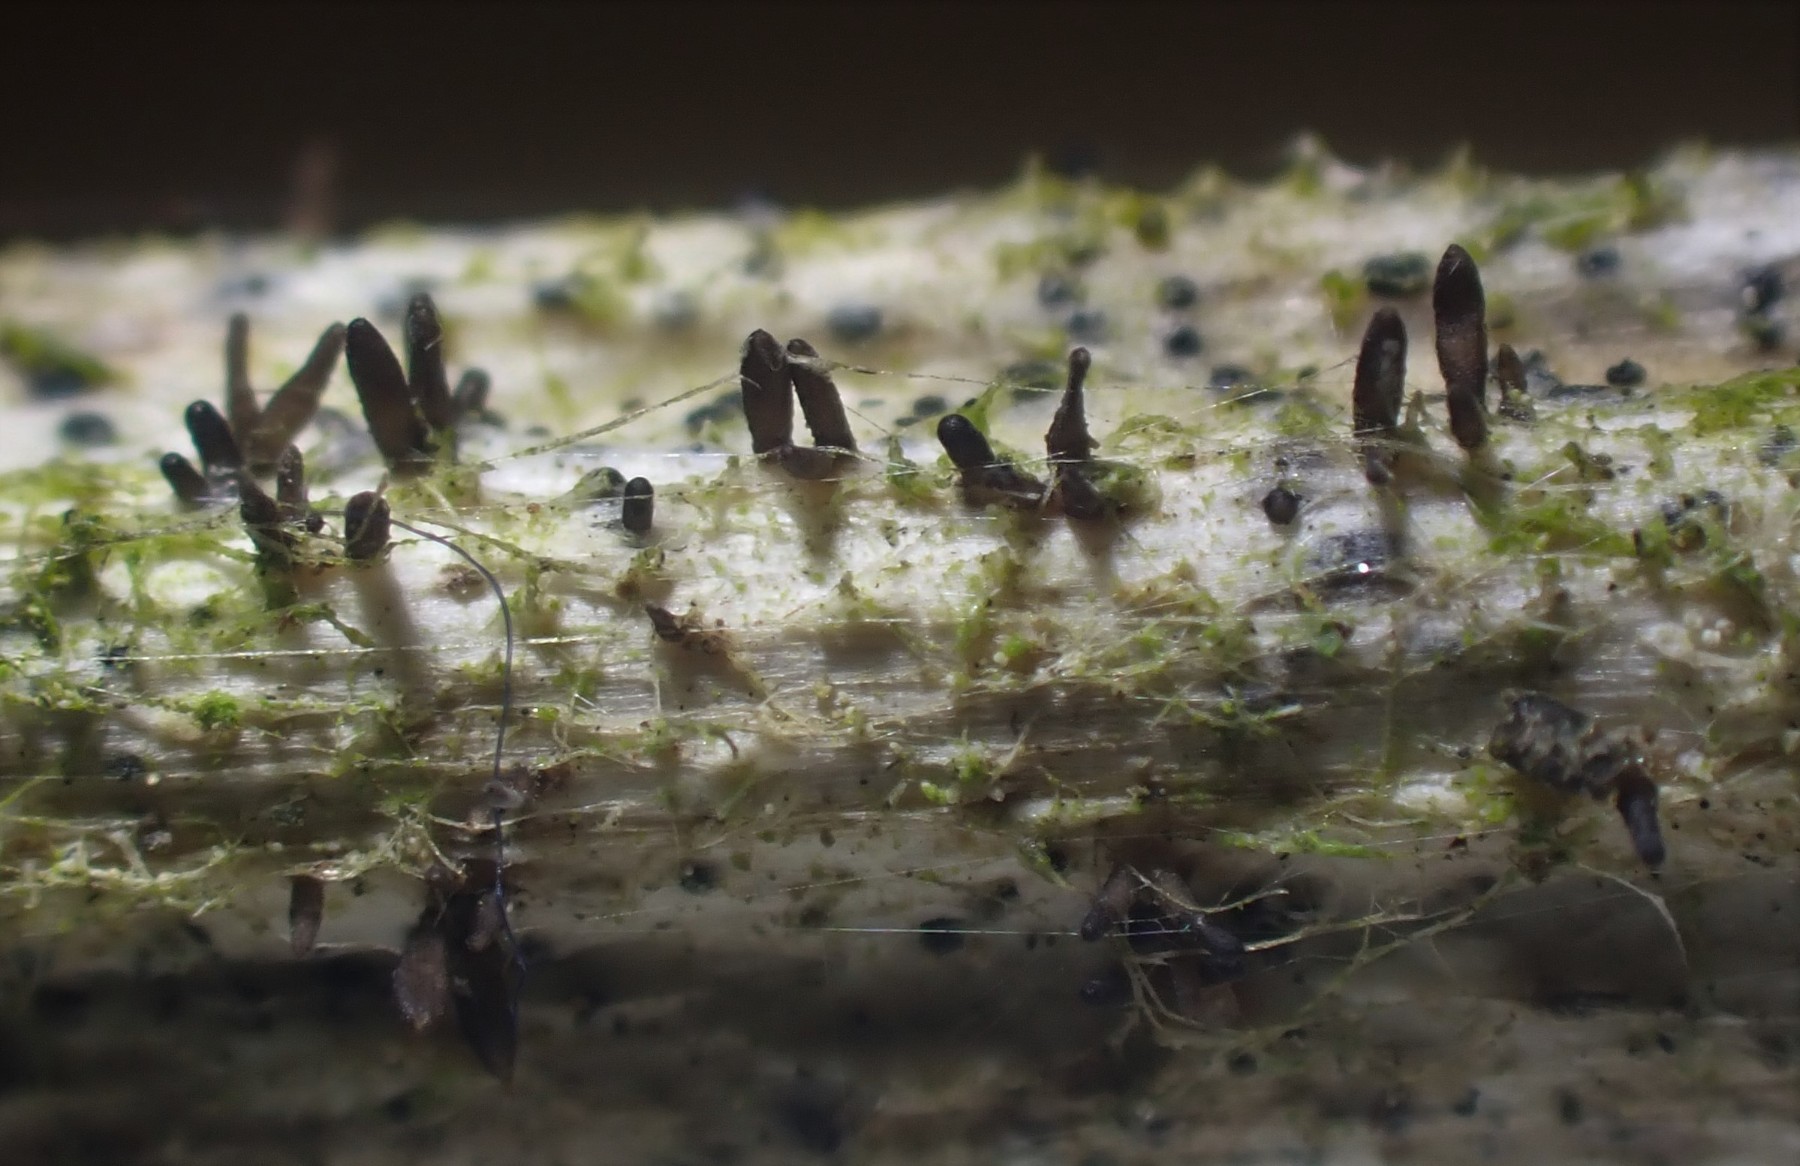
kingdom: Fungi
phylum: Ascomycota
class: Dothideomycetes
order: Acrospermales
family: Acrospermaceae
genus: Acrospermum
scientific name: Acrospermum compressum
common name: nælde-stængeltunge
